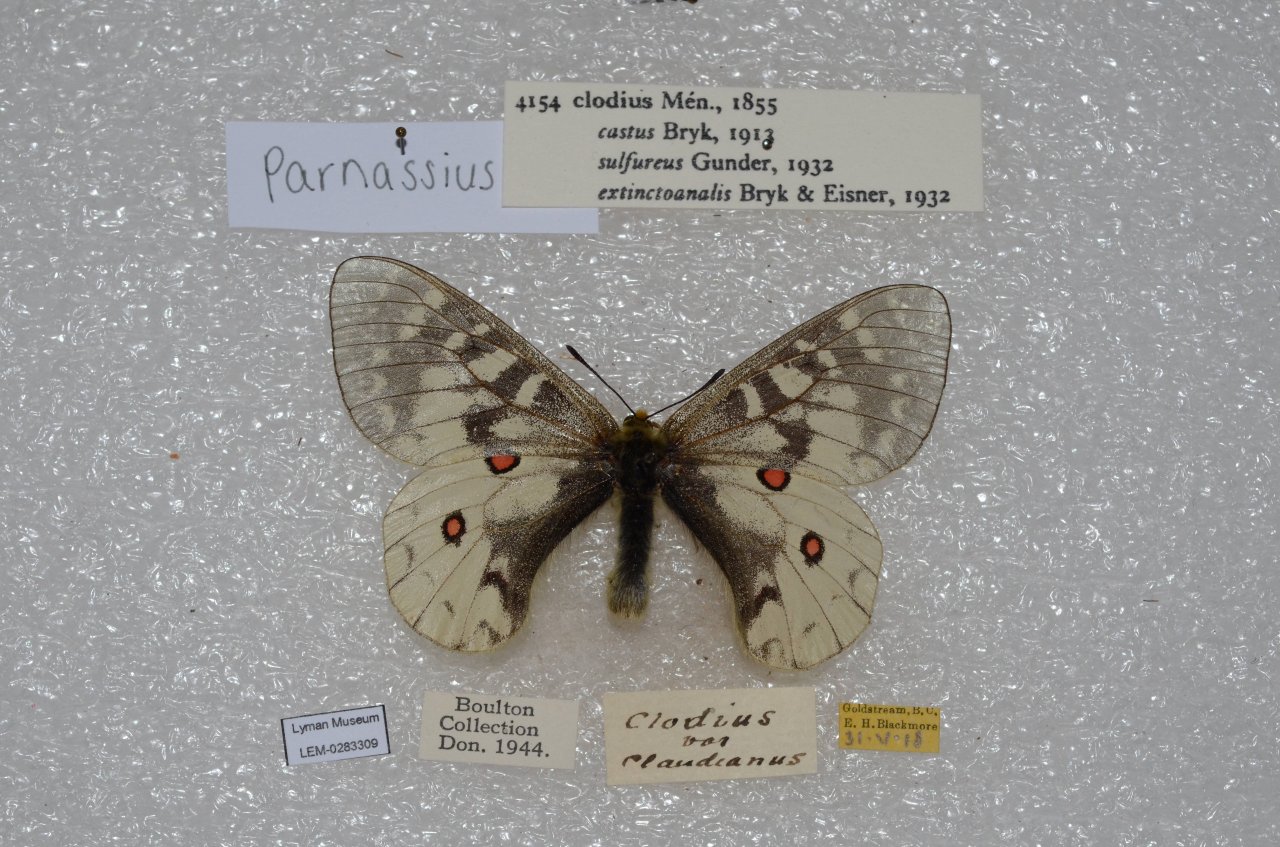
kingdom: Animalia
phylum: Arthropoda
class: Insecta
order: Lepidoptera
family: Papilionidae
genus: Parnassius
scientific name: Parnassius clodius
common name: Clodius Parnassian
